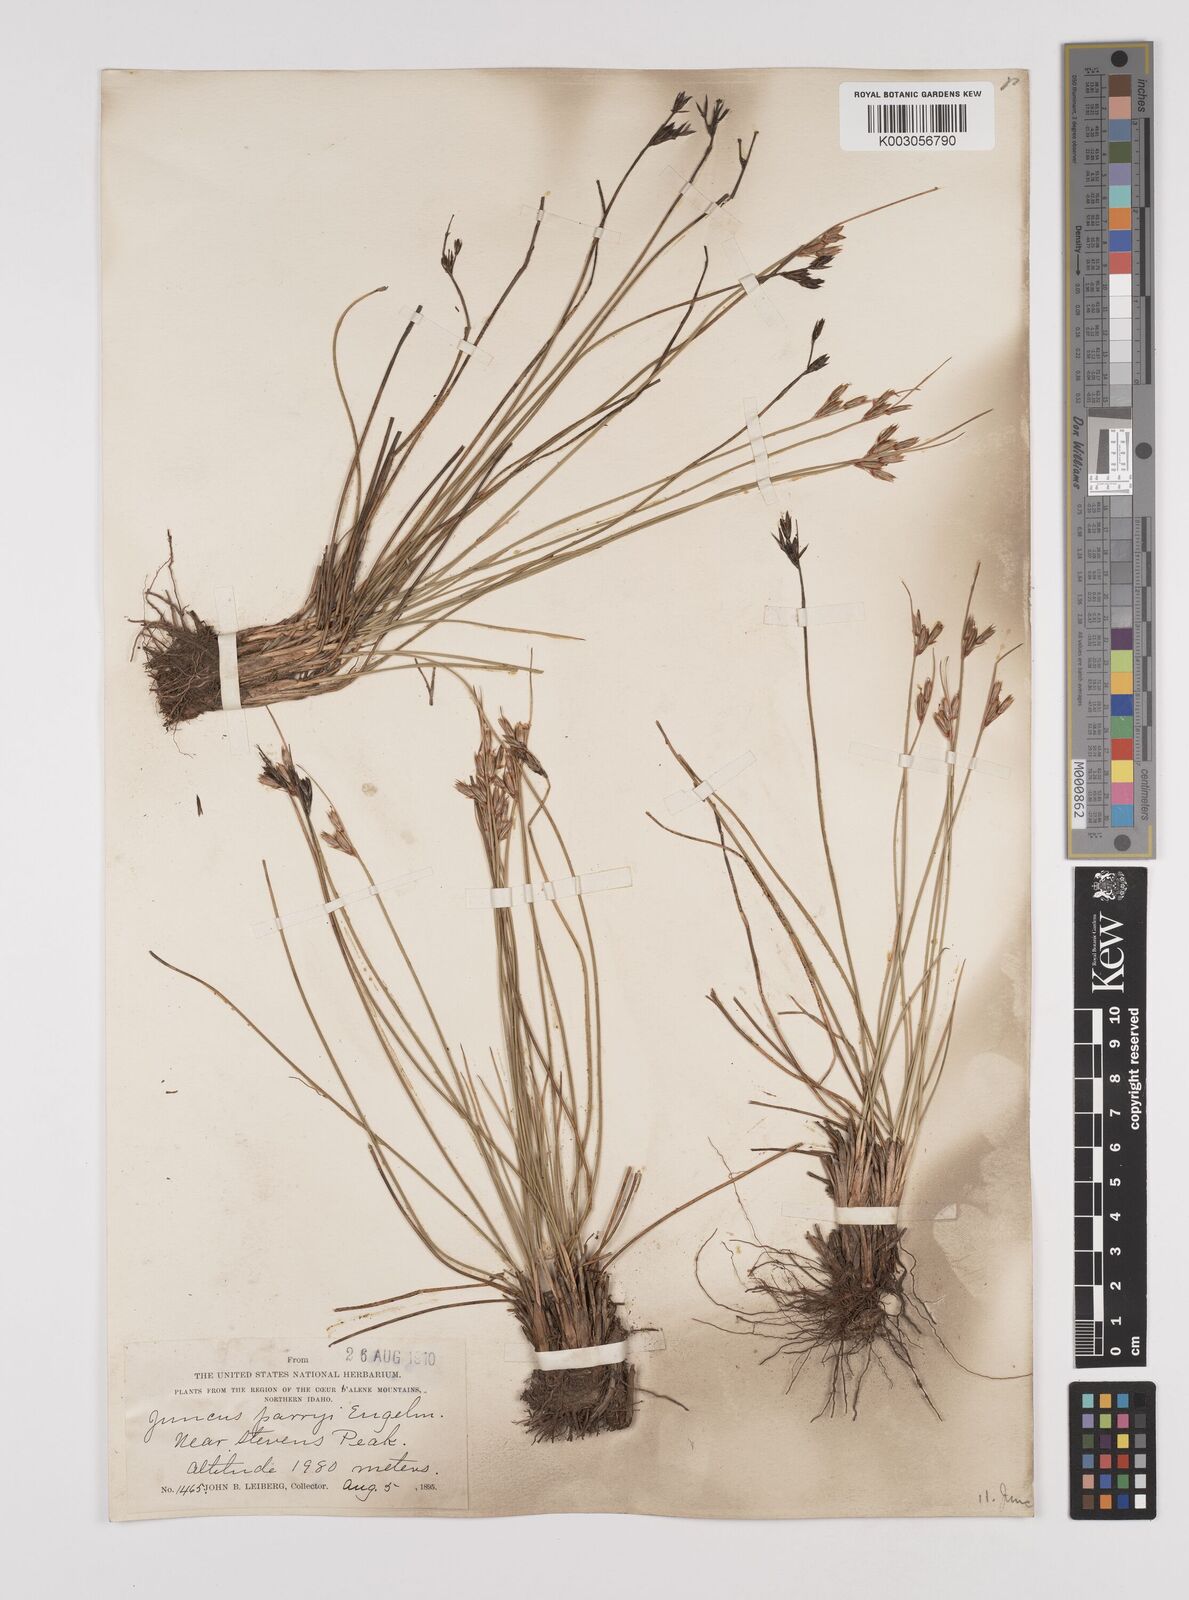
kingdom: Plantae
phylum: Tracheophyta
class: Liliopsida
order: Poales
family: Juncaceae
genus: Juncus
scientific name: Juncus parryi
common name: Parry's rush
